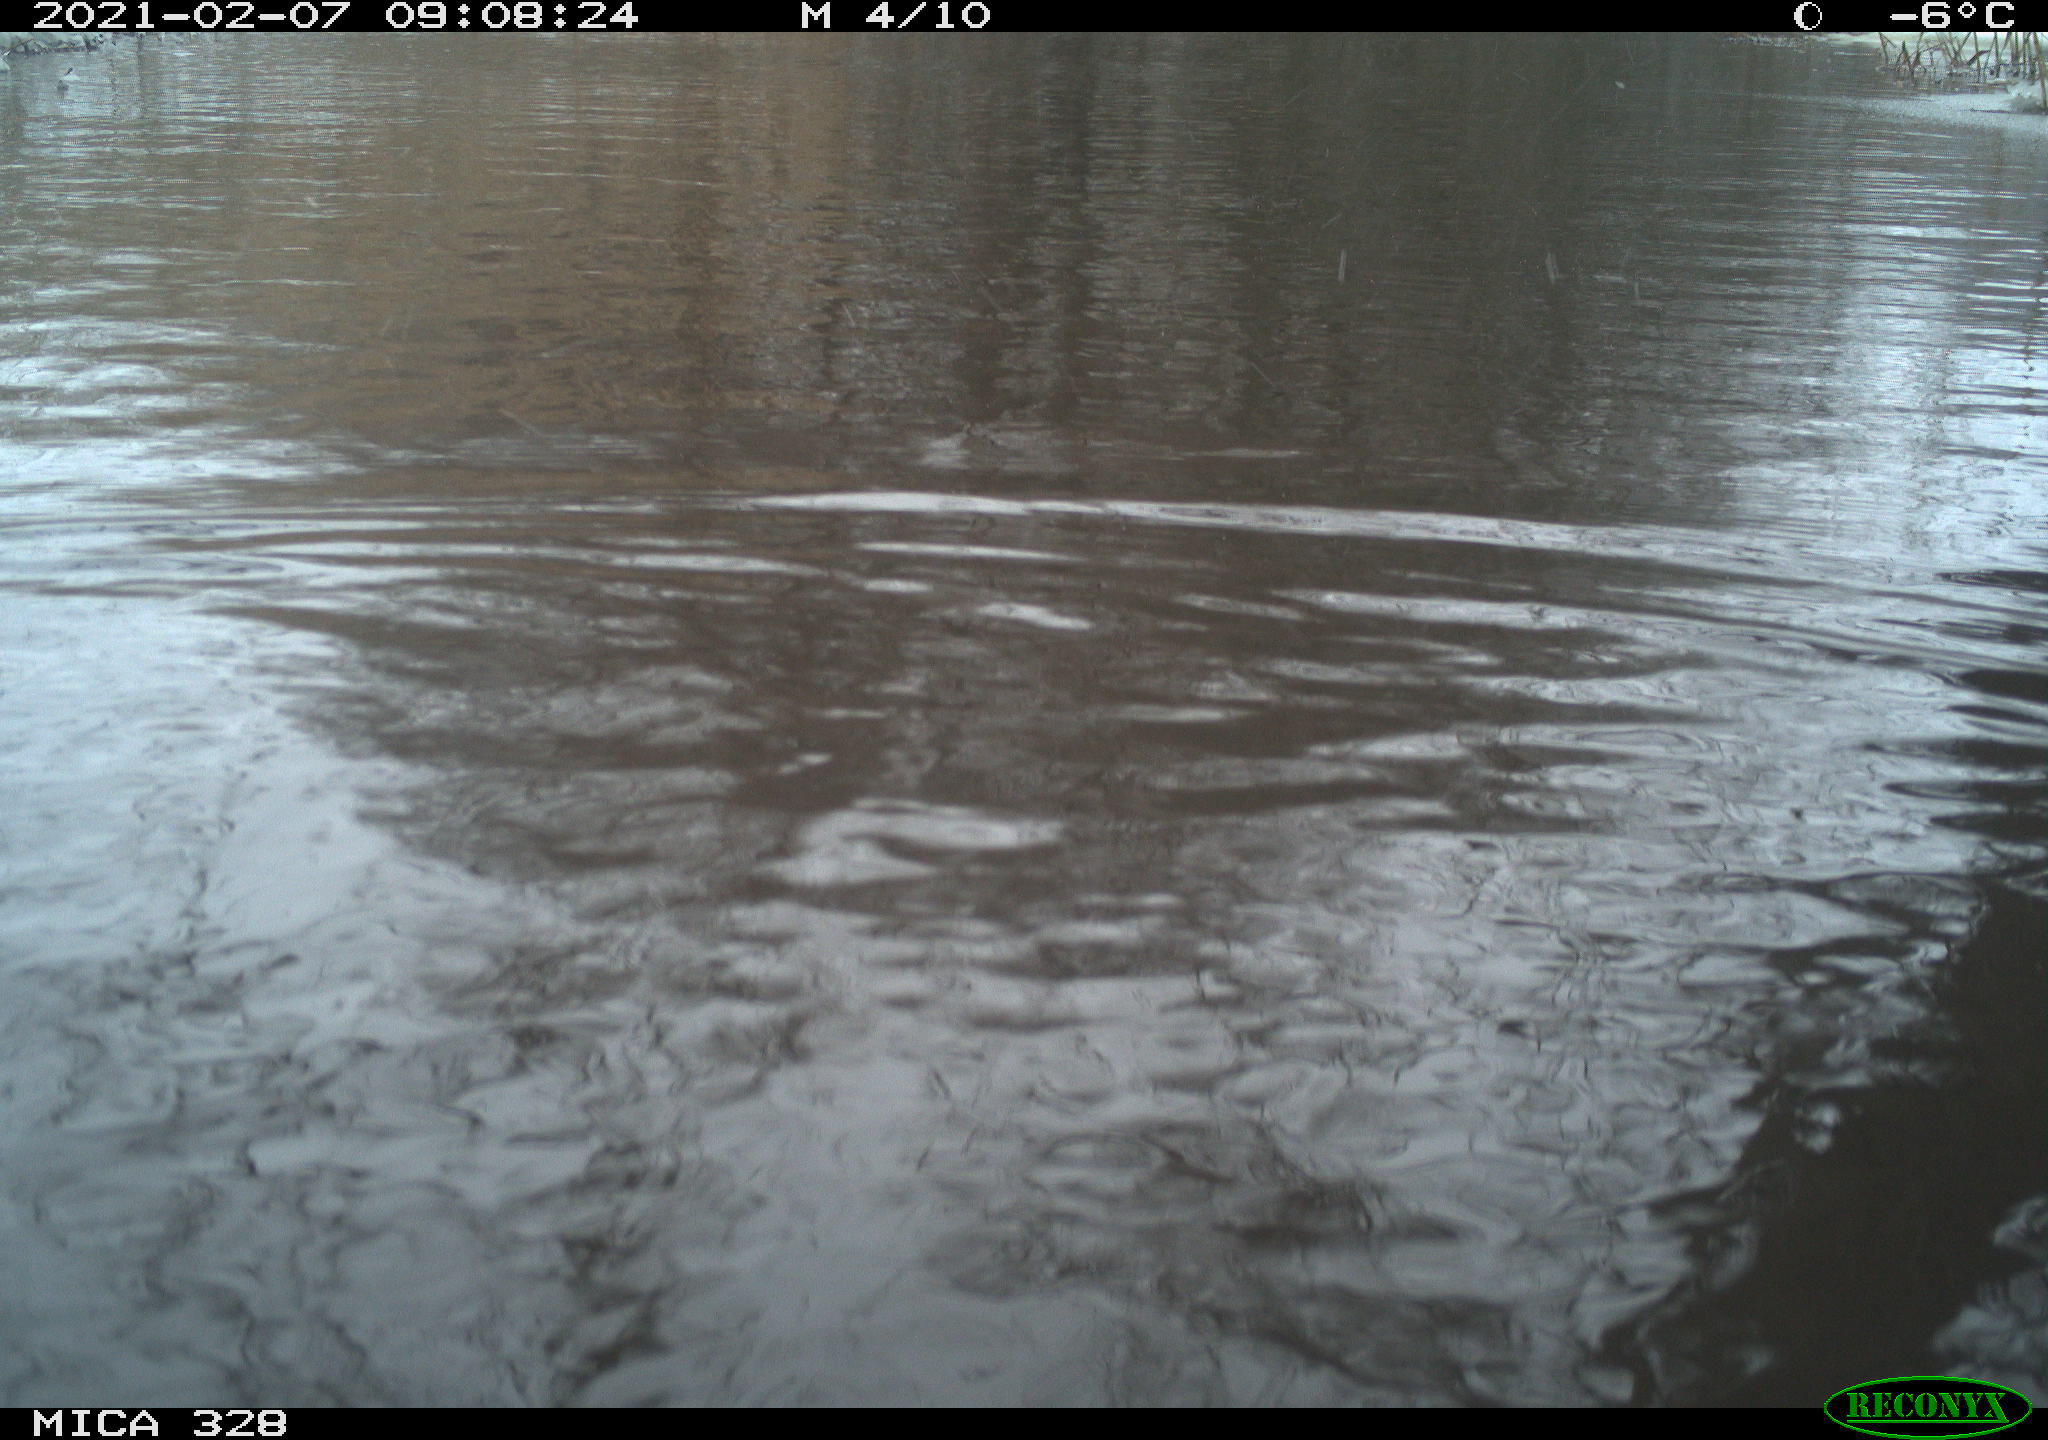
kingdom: Animalia
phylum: Chordata
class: Aves
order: Anseriformes
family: Anatidae
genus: Anas
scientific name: Anas
